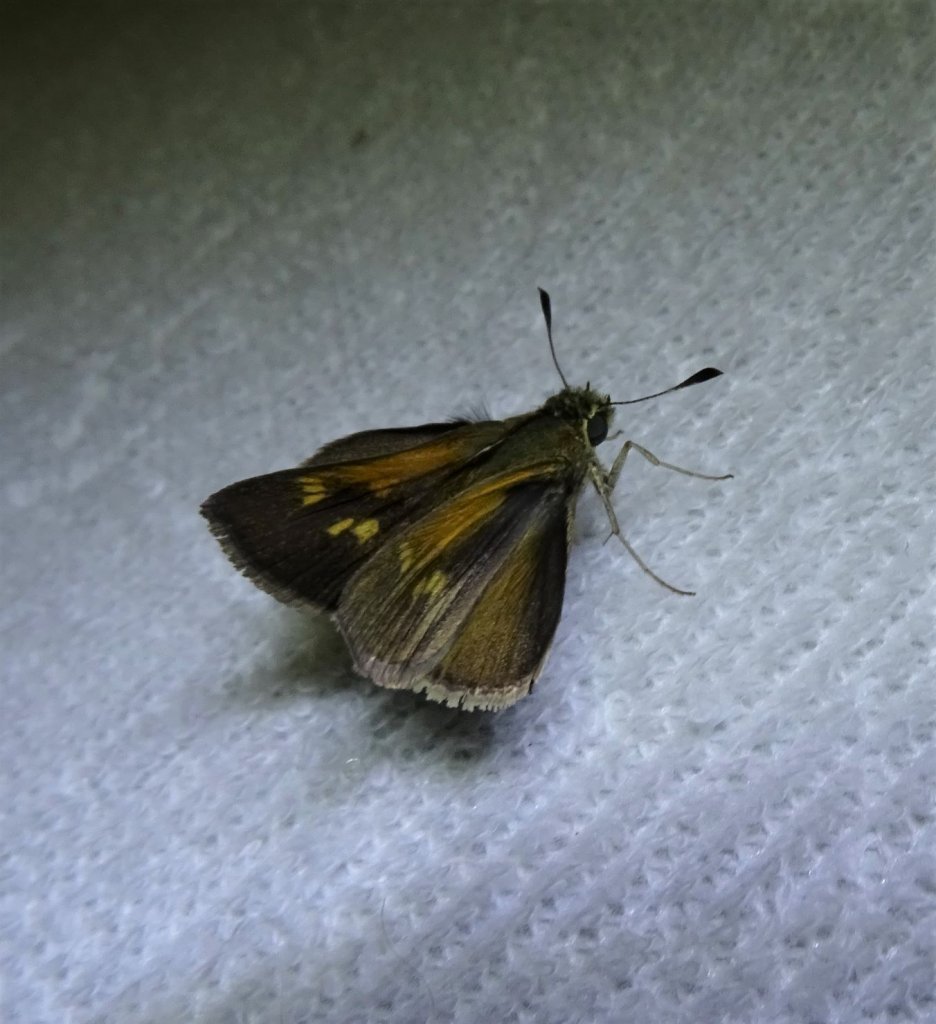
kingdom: Animalia
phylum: Arthropoda
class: Insecta
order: Lepidoptera
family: Hesperiidae
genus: Polites
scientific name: Polites themistocles
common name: Tawny-edged Skipper
